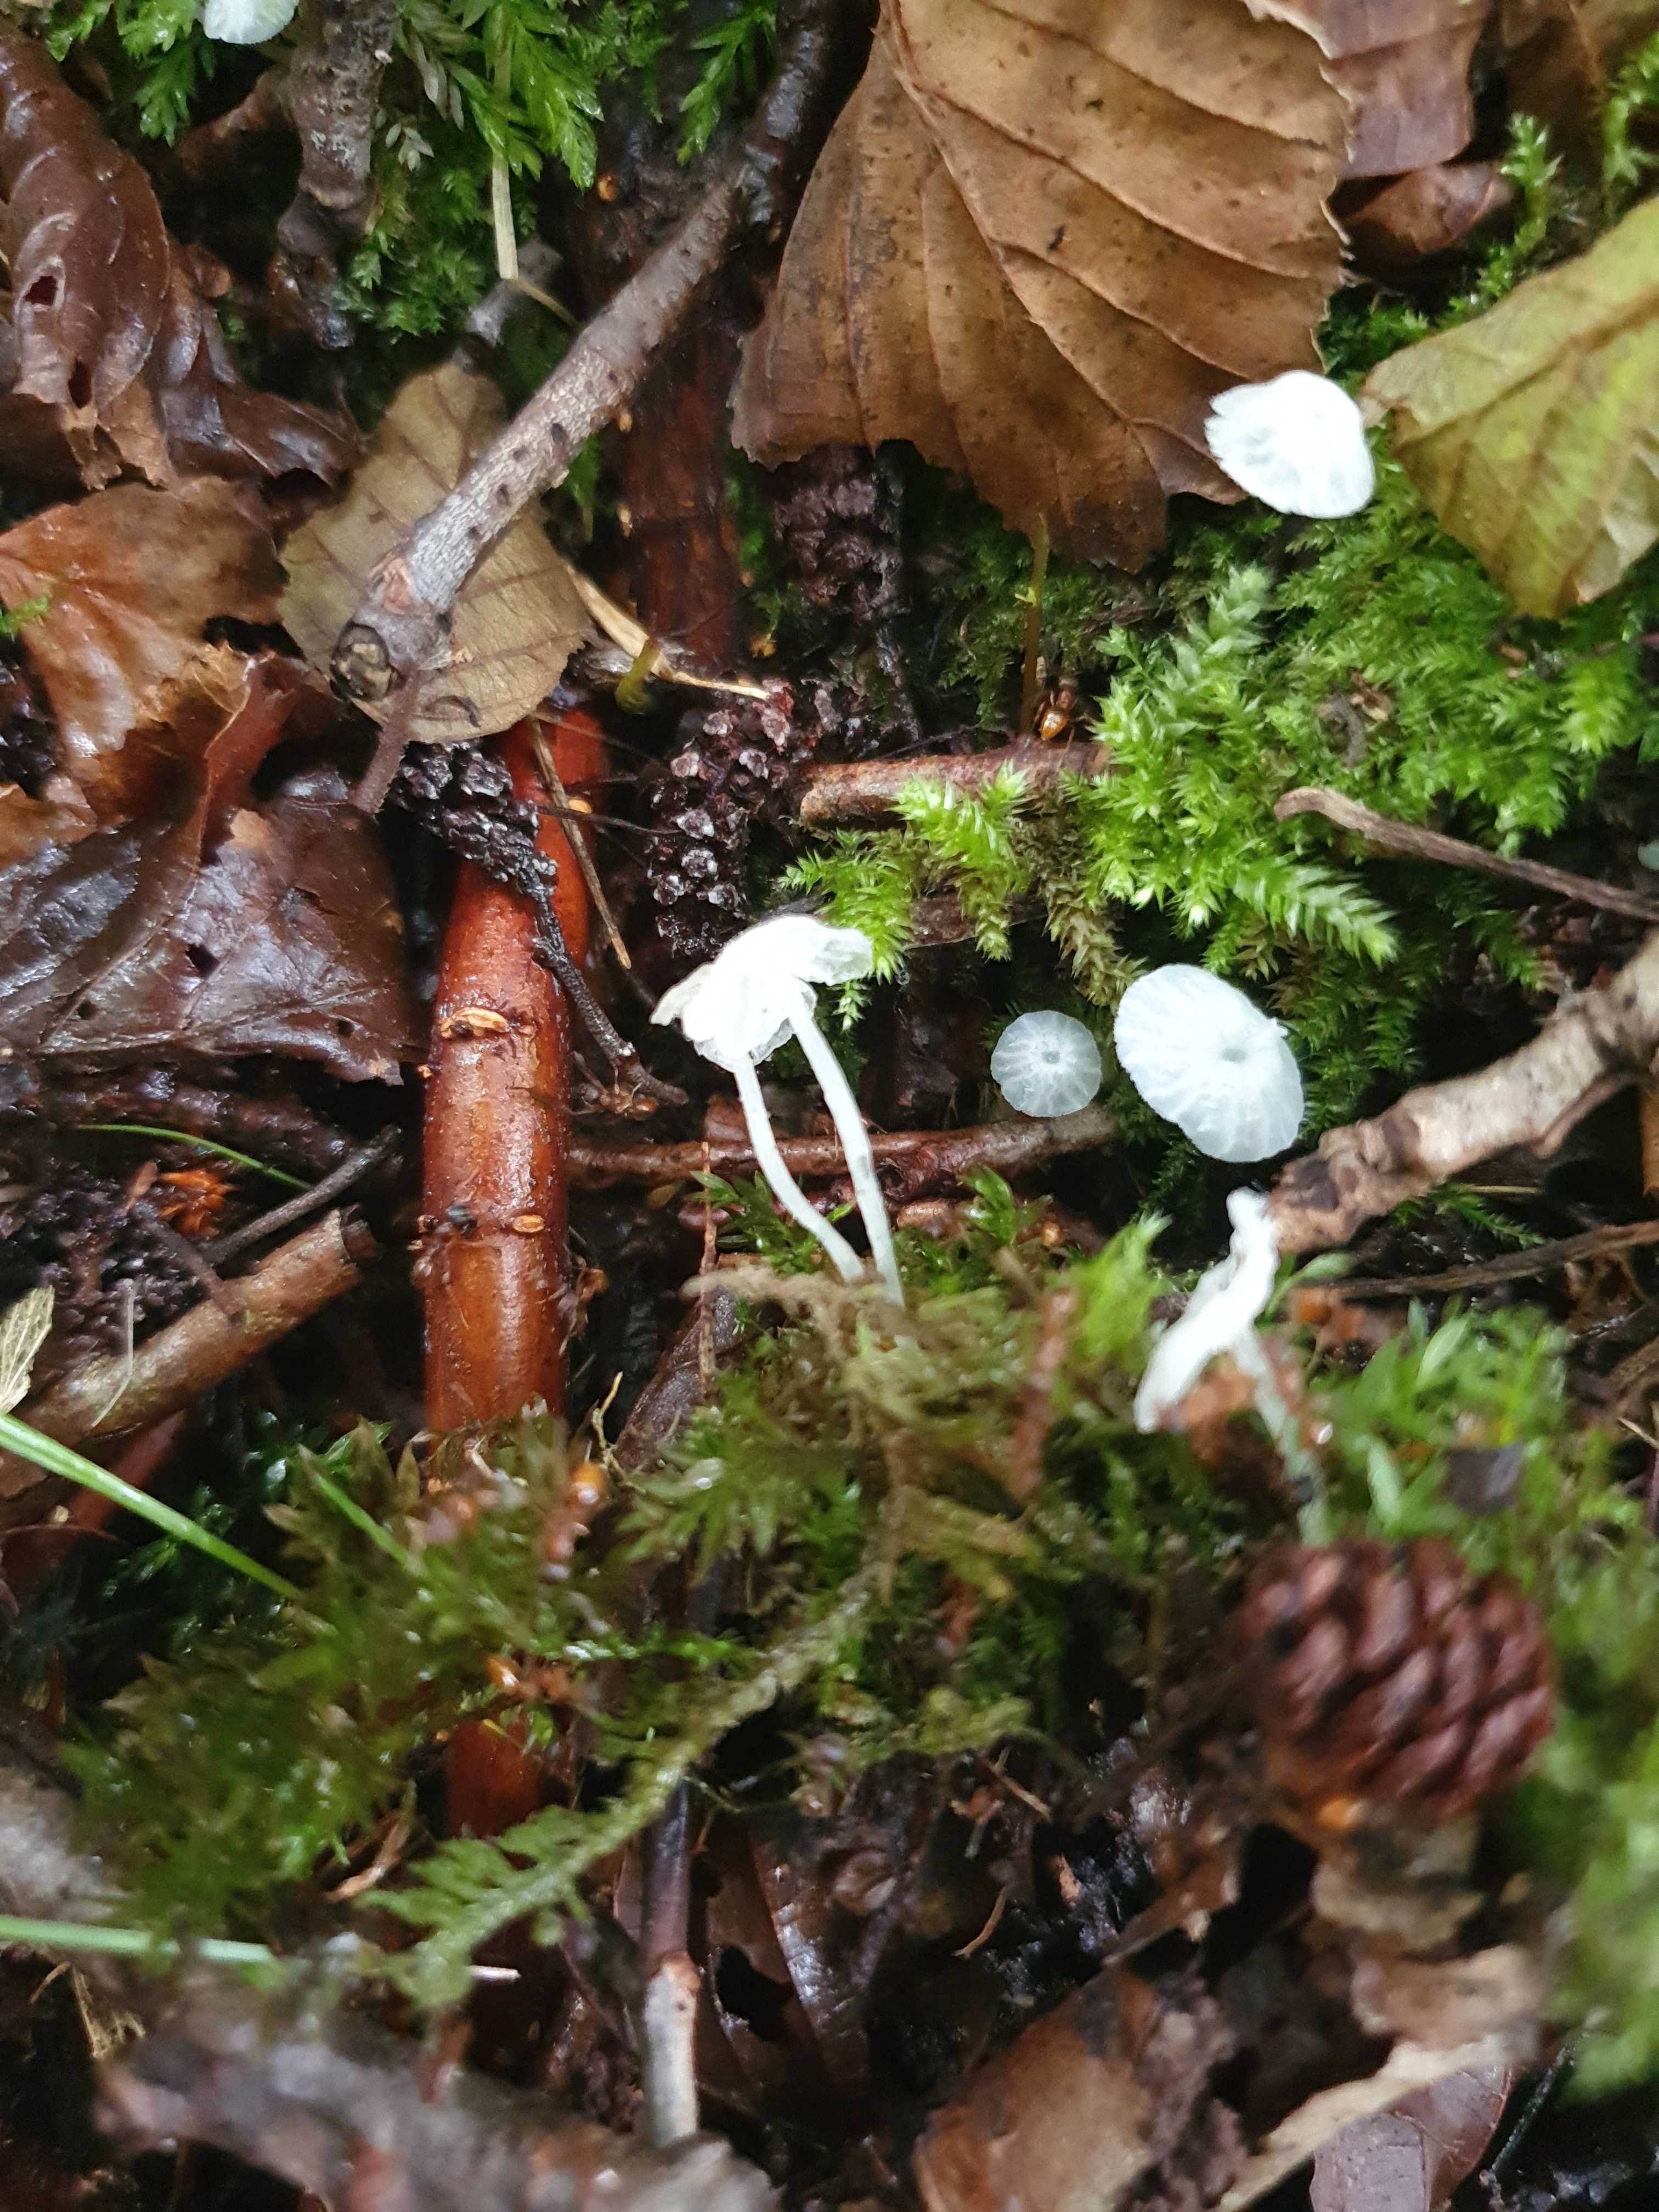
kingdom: Fungi
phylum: Basidiomycota
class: Agaricomycetes
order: Agaricales
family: Tricholomataceae
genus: Delicatula
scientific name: Delicatula integrella
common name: slørhuesvamp
